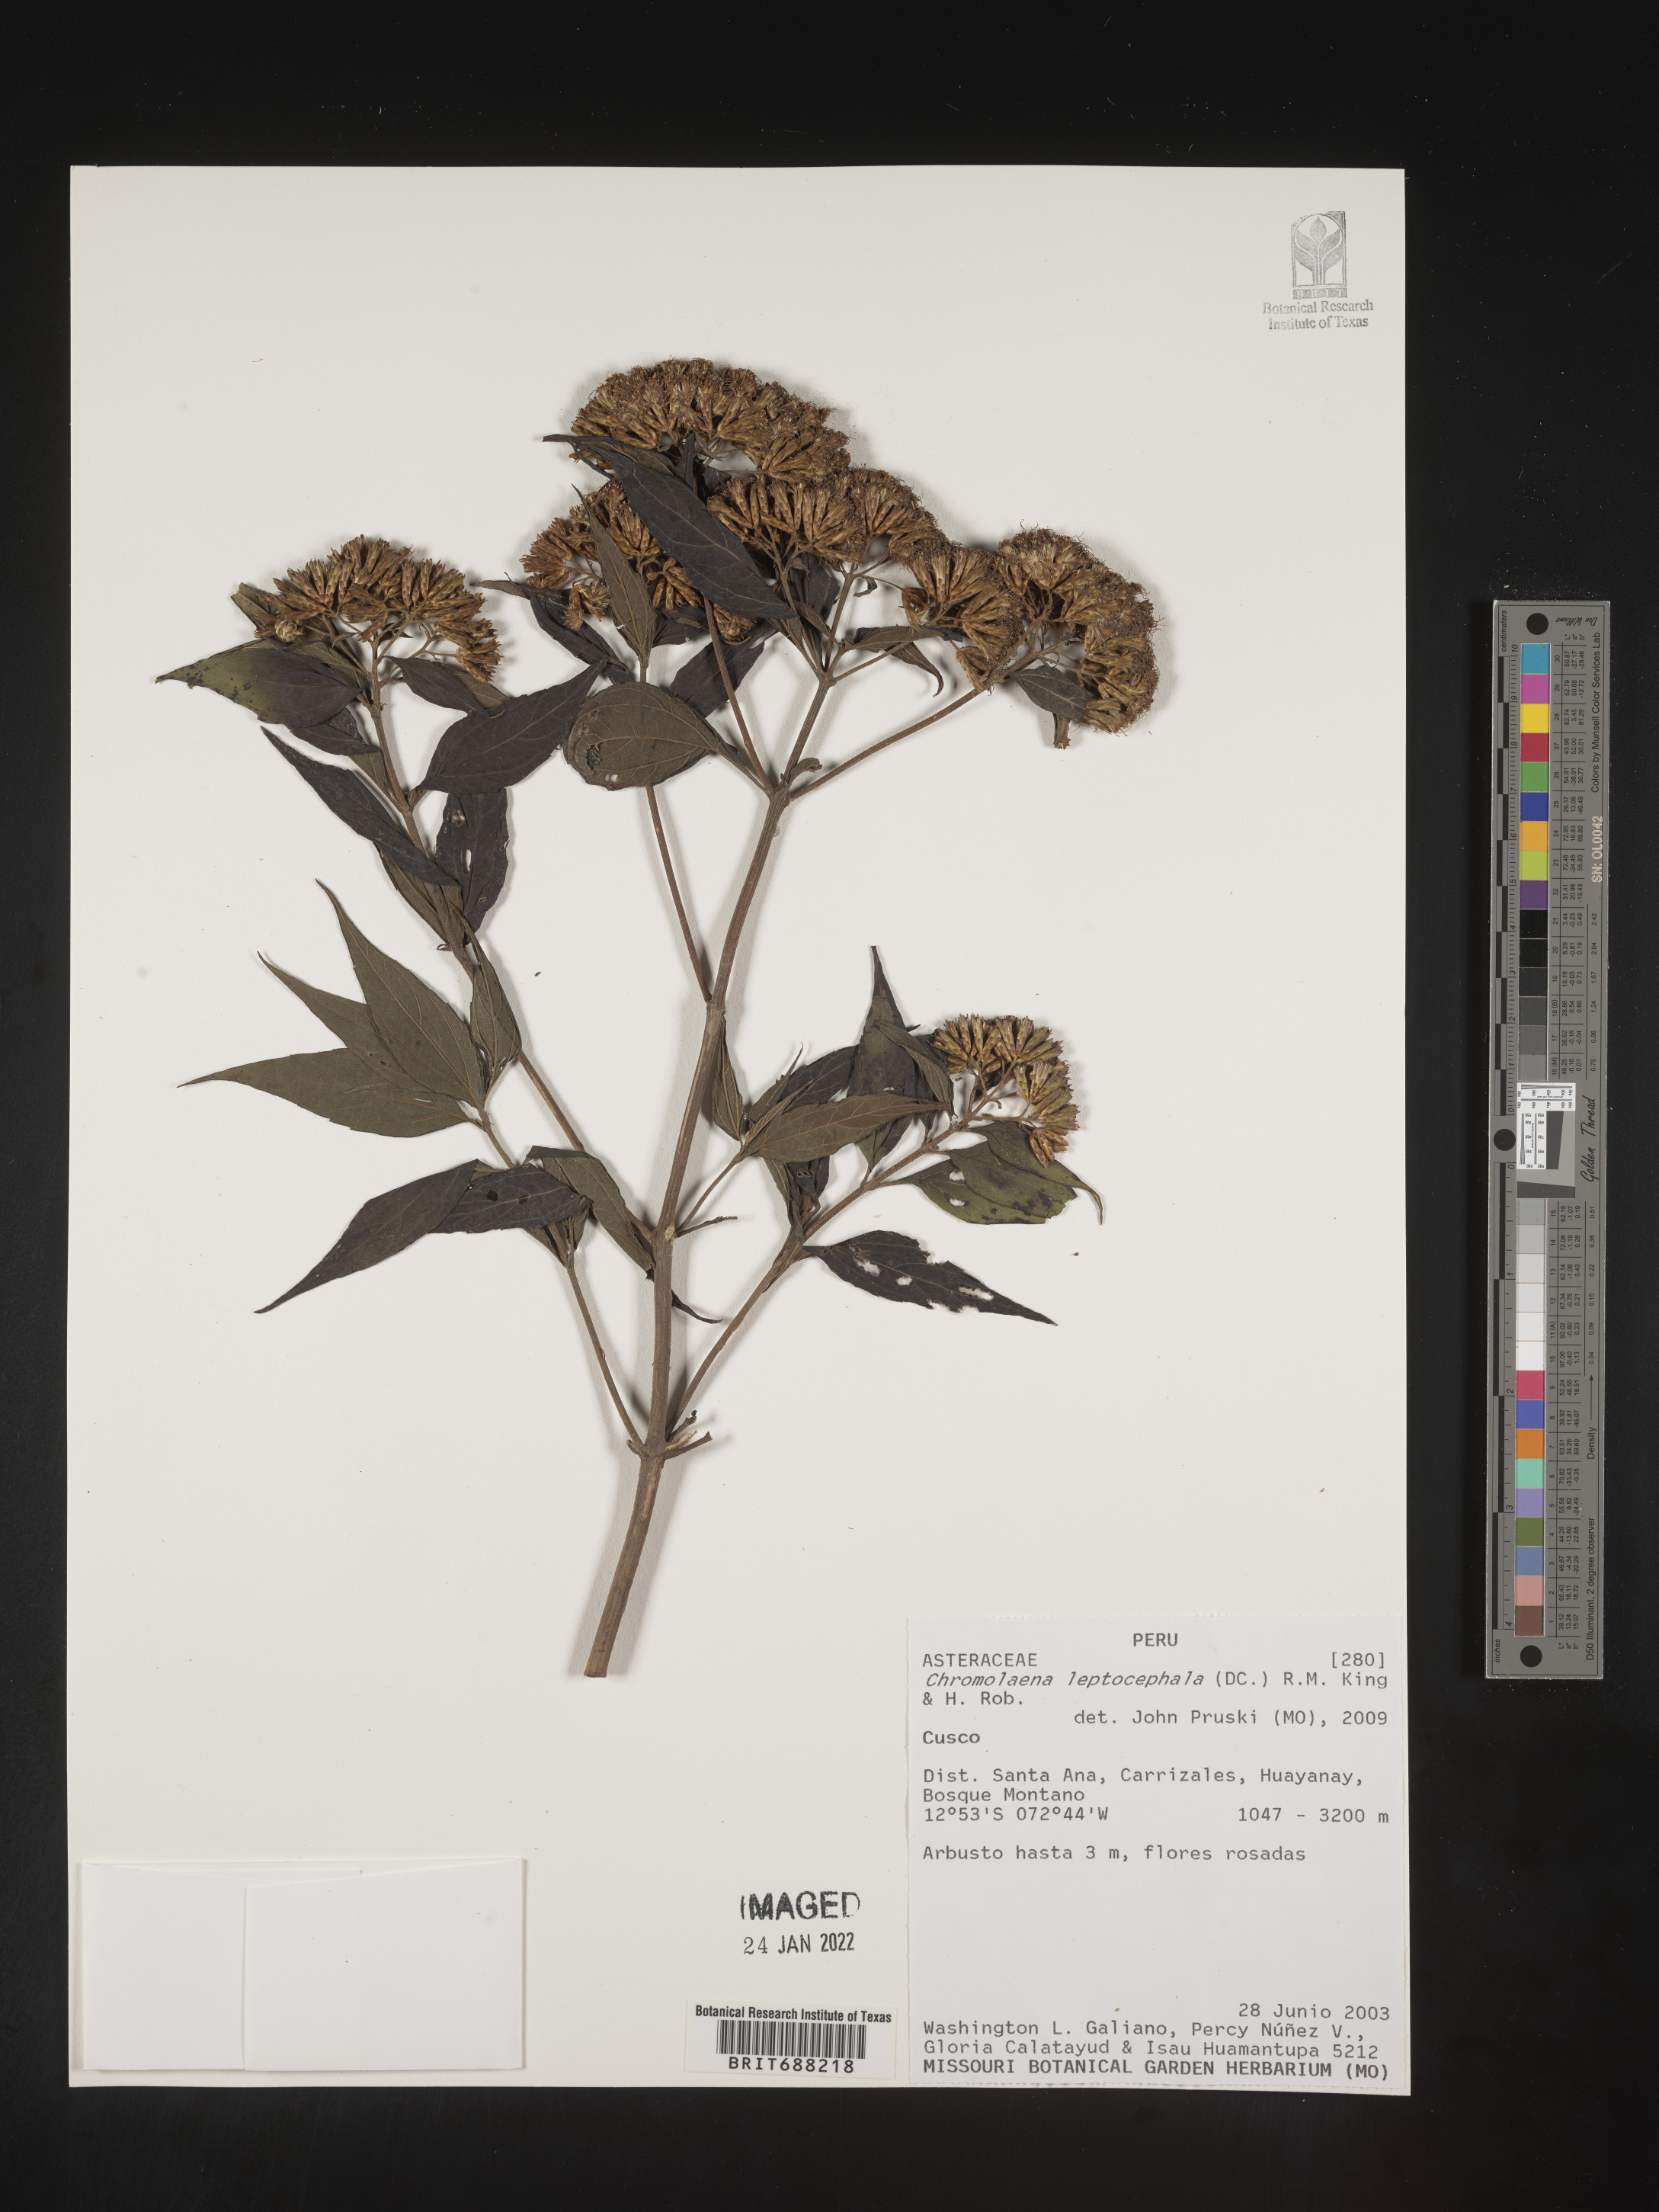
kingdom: Plantae
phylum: Tracheophyta
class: Magnoliopsida
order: Asterales
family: Asteraceae
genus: Chromolaena
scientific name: Chromolaena
